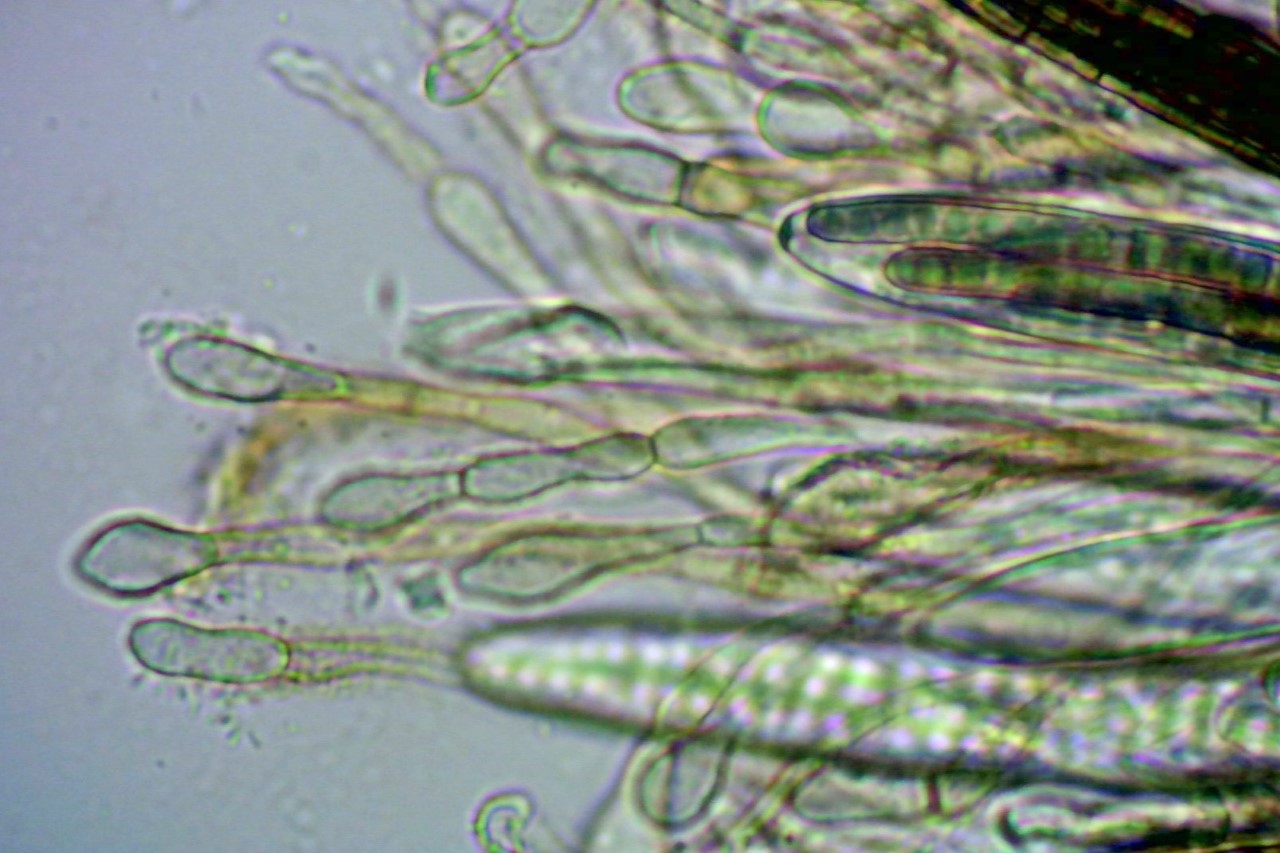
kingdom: Fungi
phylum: Ascomycota
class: Geoglossomycetes
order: Geoglossales
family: Geoglossaceae
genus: Glutinoglossum
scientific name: Glutinoglossum glutinosum
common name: slimet jordtunge
